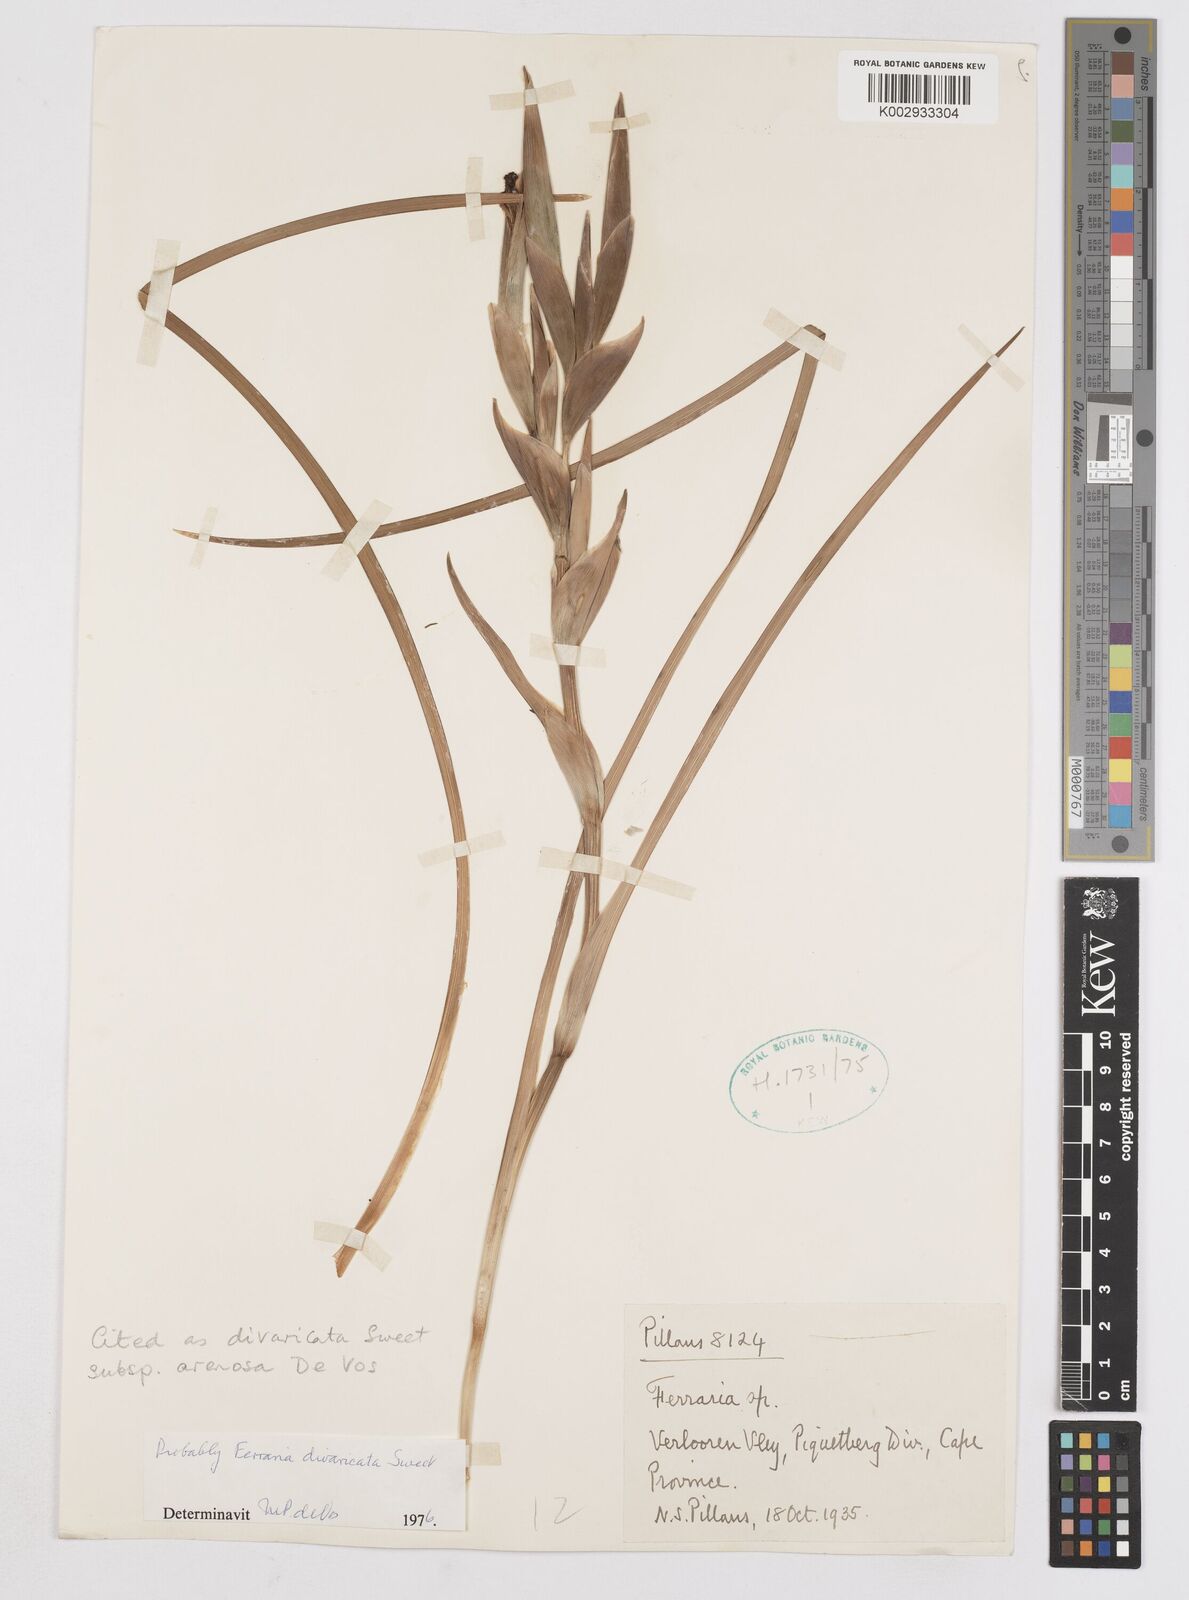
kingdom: Plantae
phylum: Tracheophyta
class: Liliopsida
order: Asparagales
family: Iridaceae
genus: Ferraria
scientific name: Ferraria divaricata
